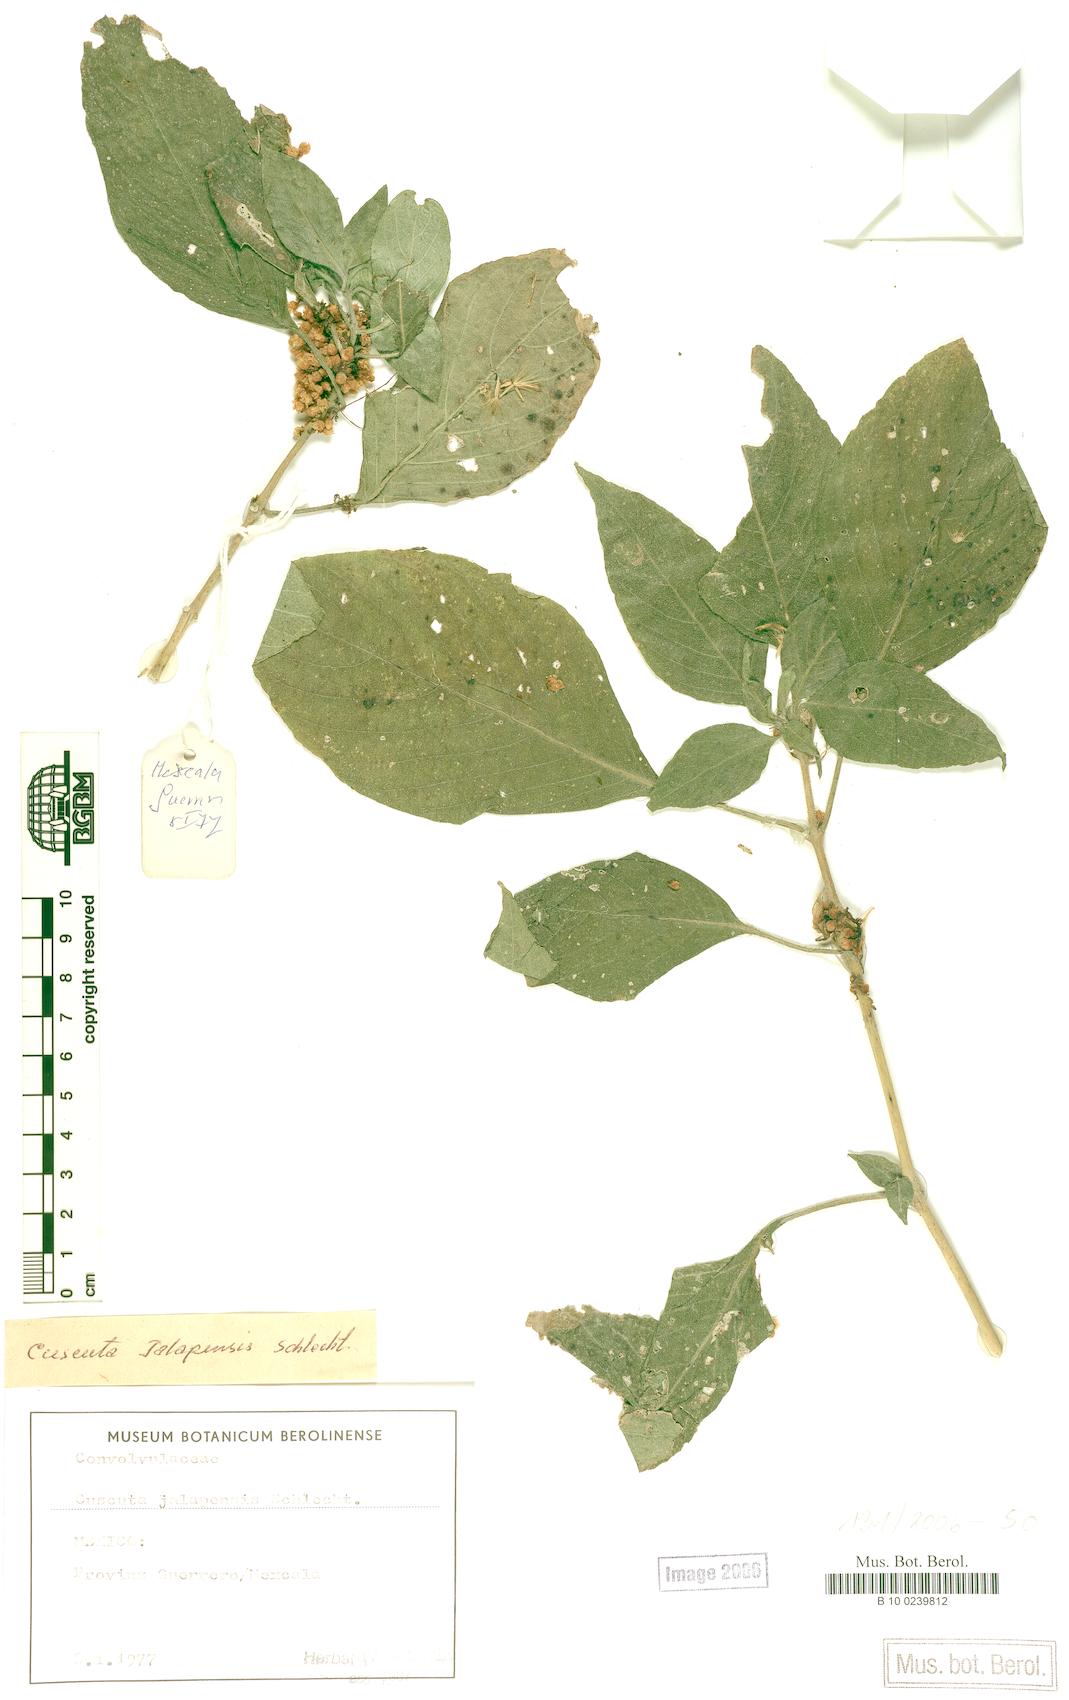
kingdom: Plantae
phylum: Tracheophyta
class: Magnoliopsida
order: Solanales
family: Convolvulaceae
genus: Cuscuta
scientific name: Cuscuta jalapensis
